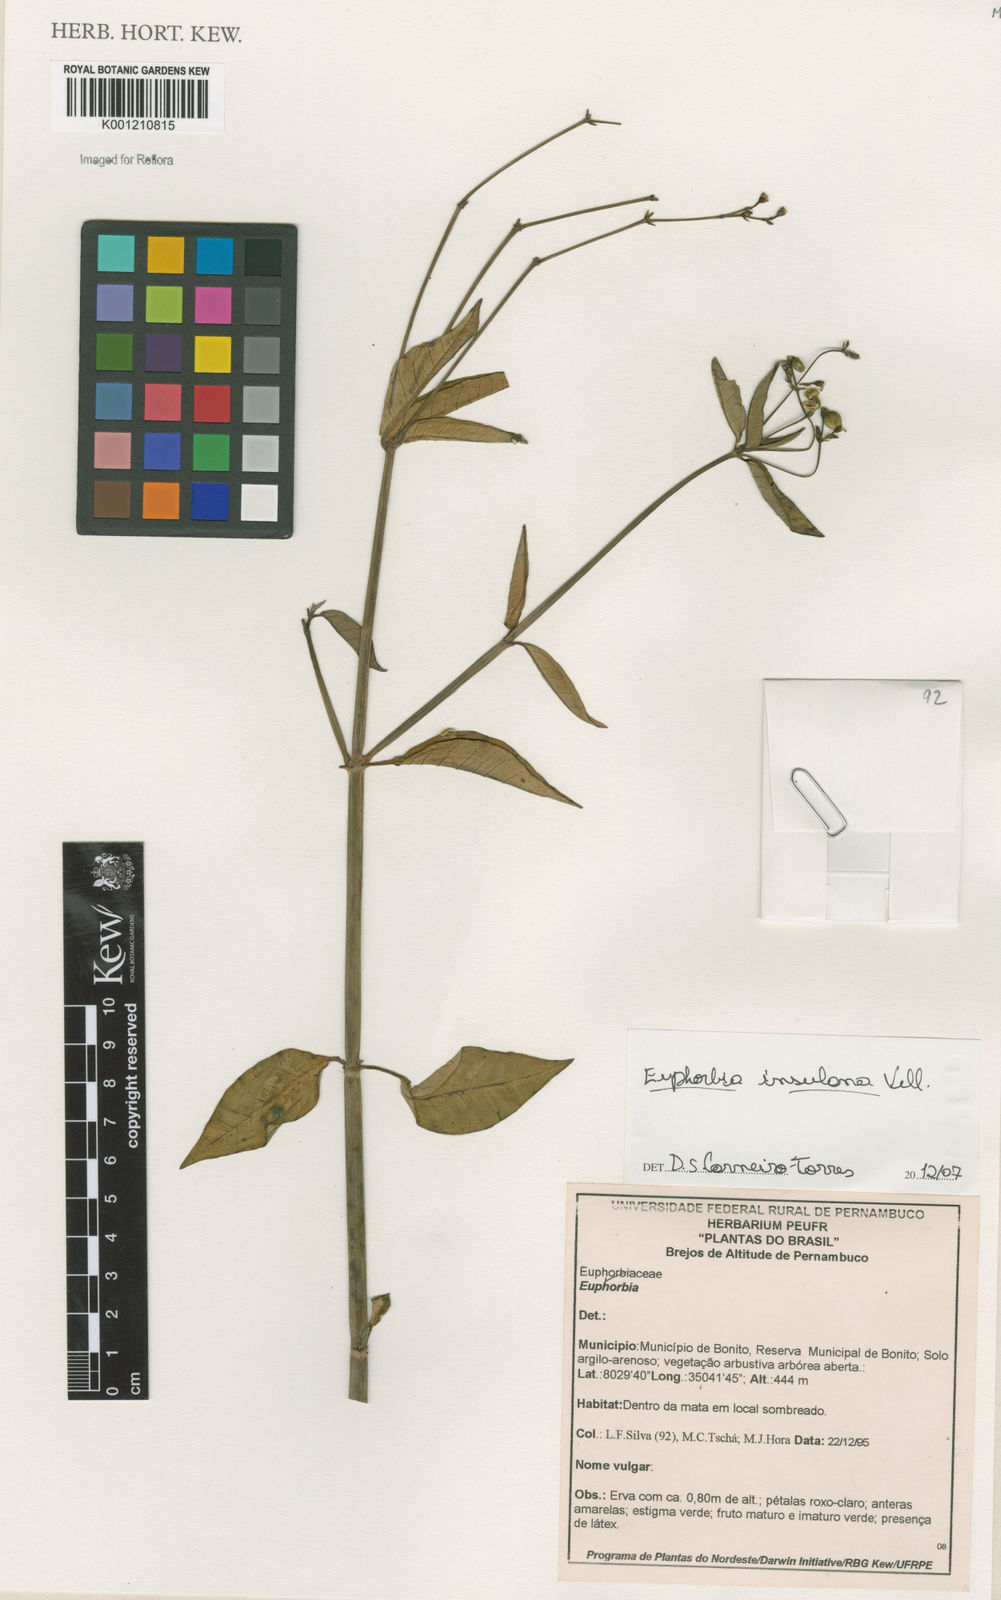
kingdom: Plantae
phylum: Tracheophyta
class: Magnoliopsida
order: Malpighiales
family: Euphorbiaceae
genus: Euphorbia
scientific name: Euphorbia insulana
